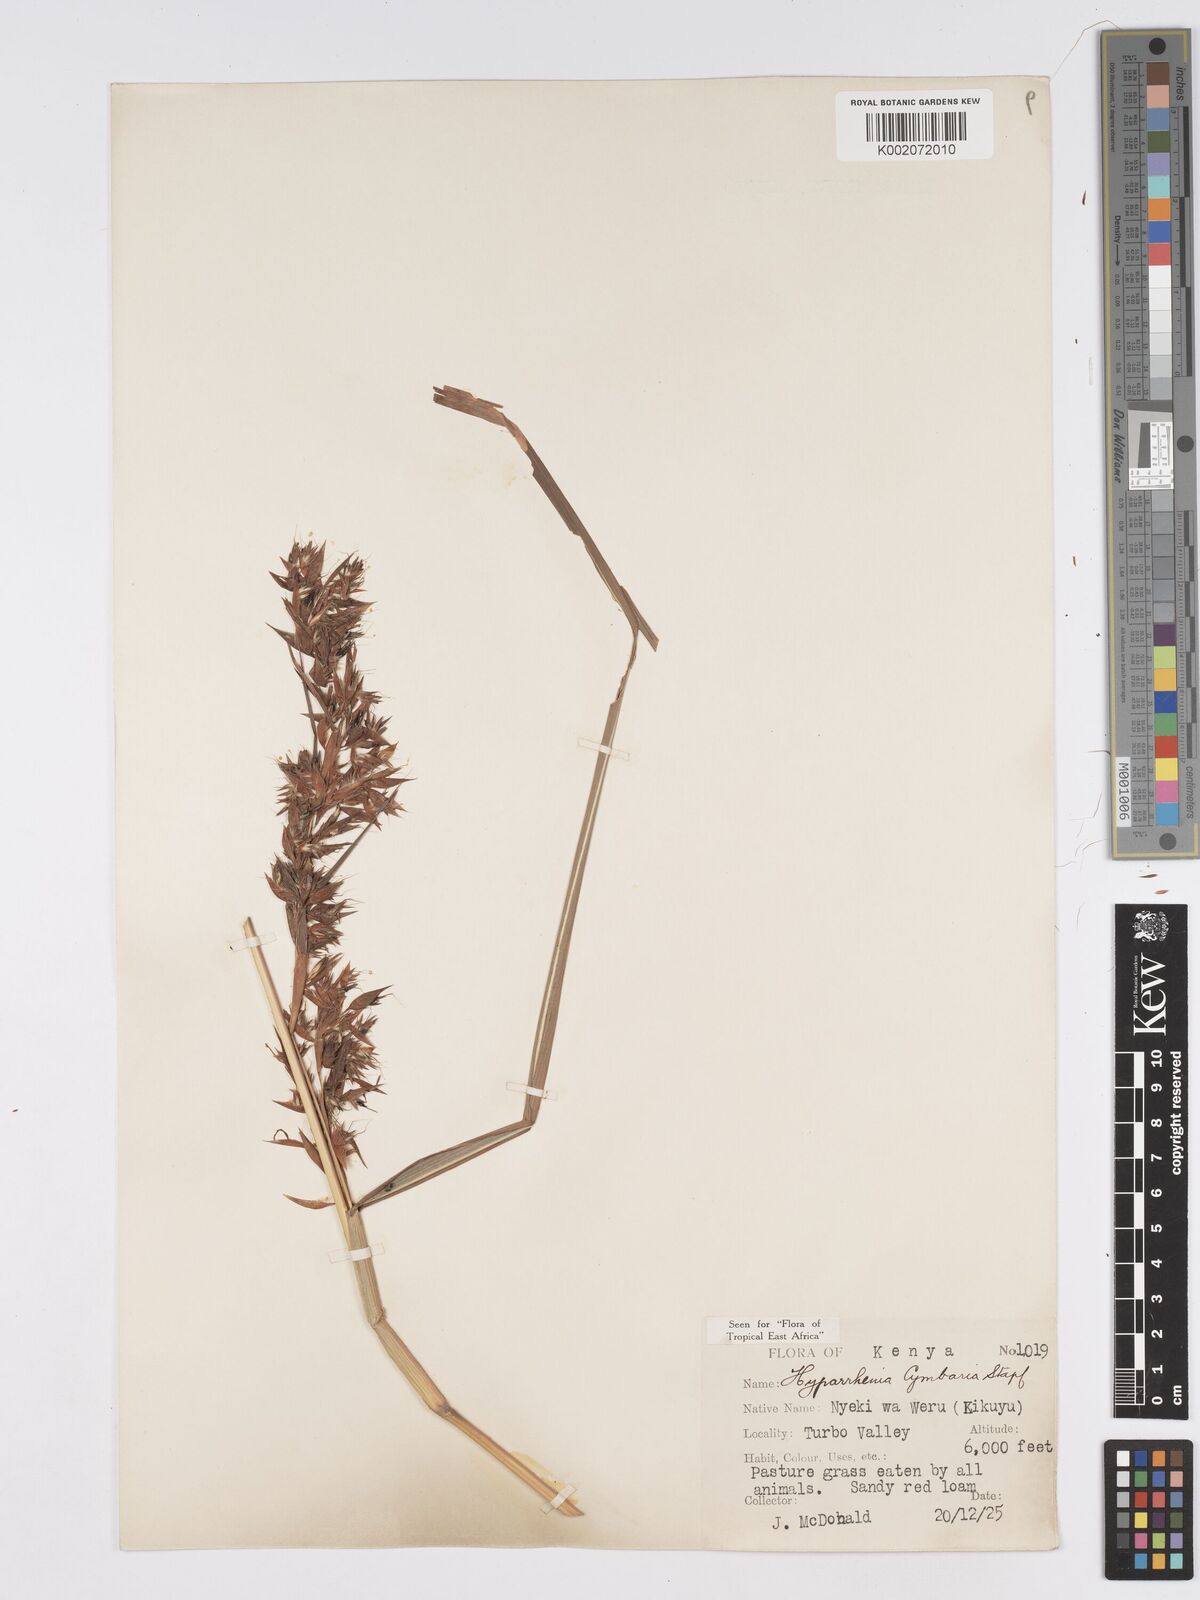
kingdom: Plantae
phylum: Tracheophyta
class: Liliopsida
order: Poales
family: Poaceae
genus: Hyparrhenia
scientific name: Hyparrhenia cymbaria
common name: Boat thatching grass
